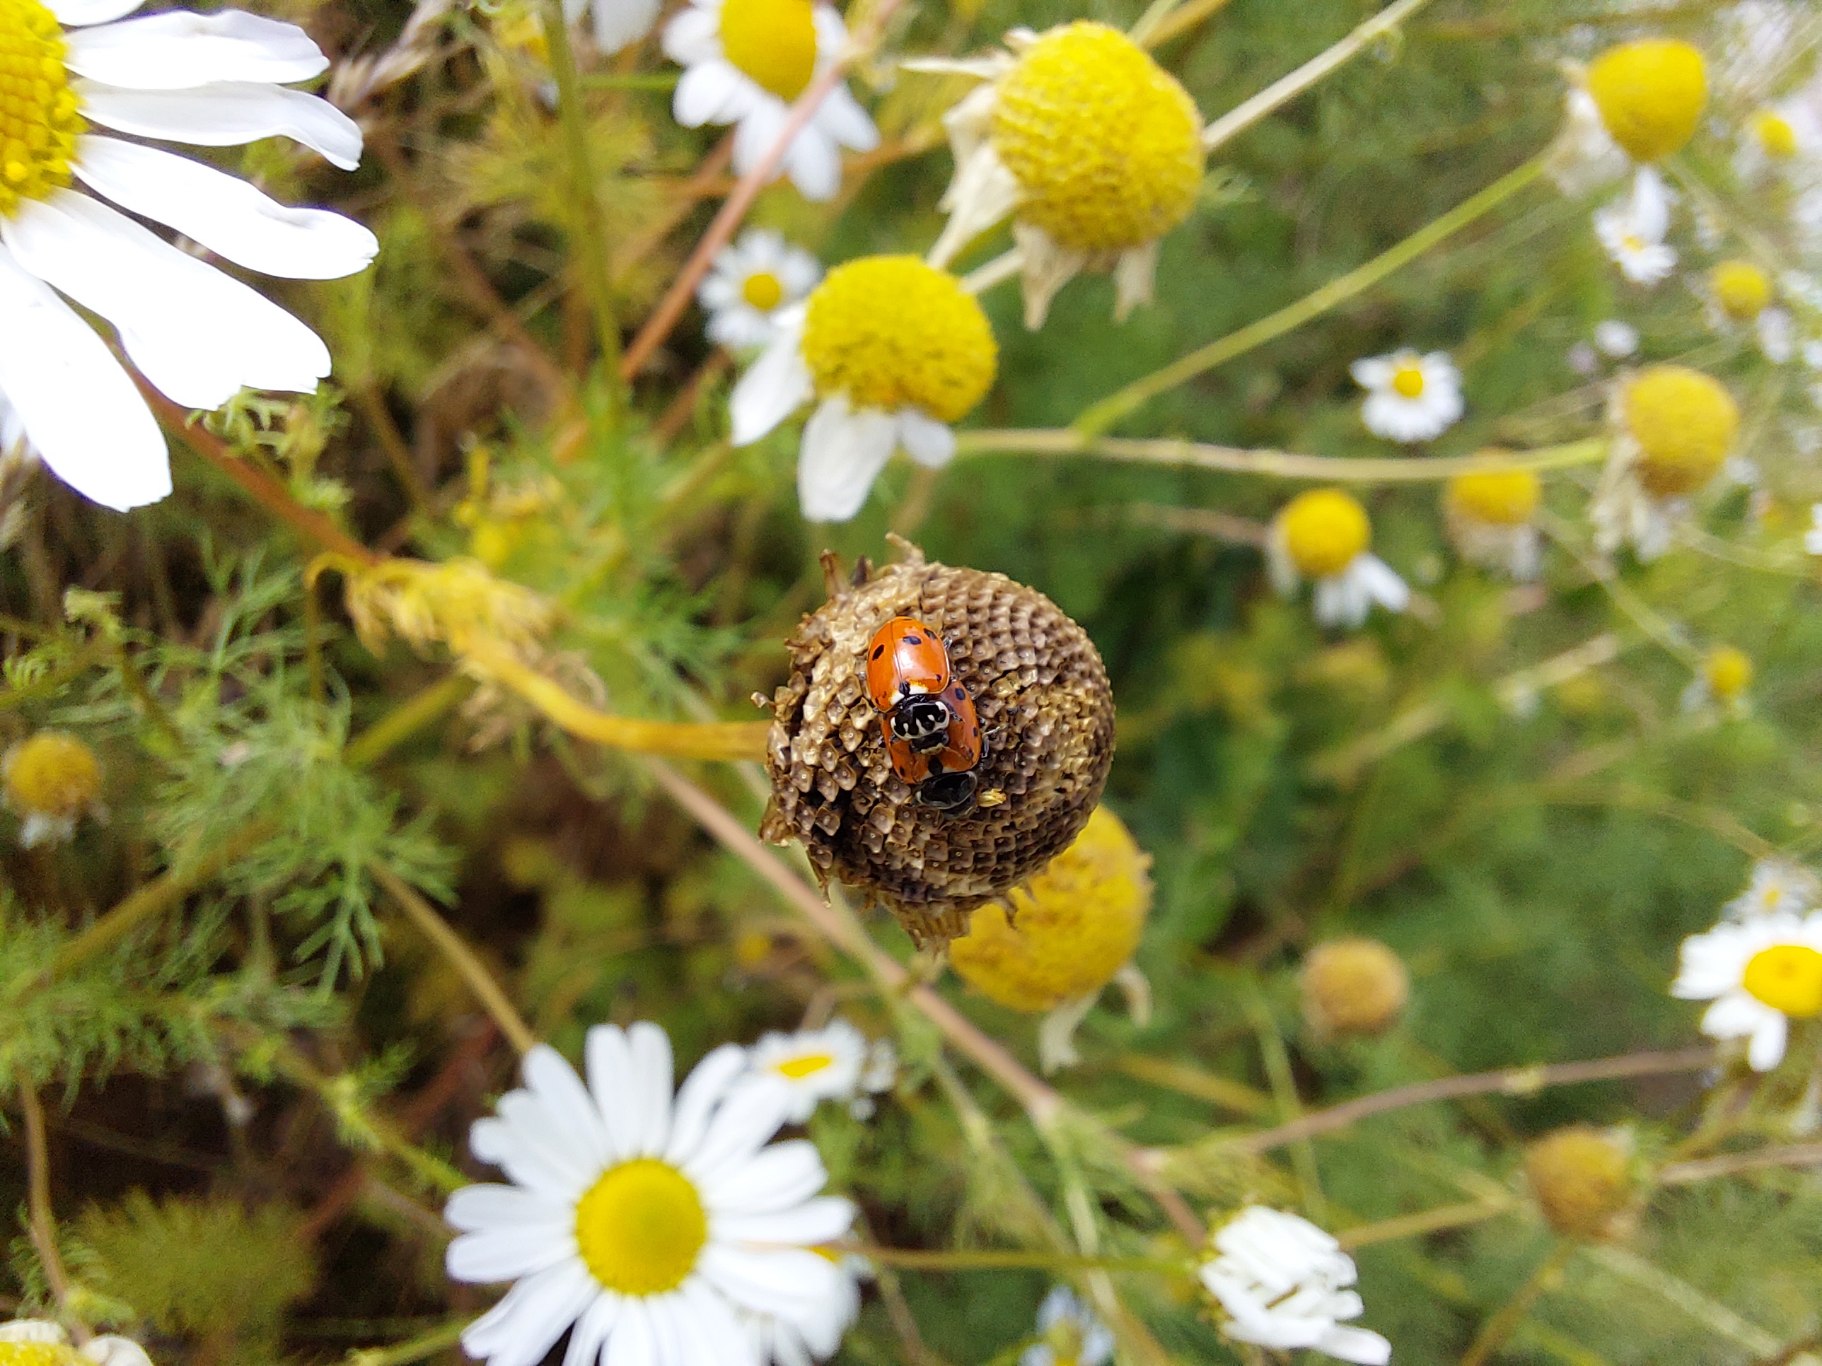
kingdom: Animalia
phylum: Arthropoda
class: Insecta
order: Coleoptera
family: Coccinellidae
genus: Hippodamia
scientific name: Hippodamia variegata
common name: Adonis' mariehøne
